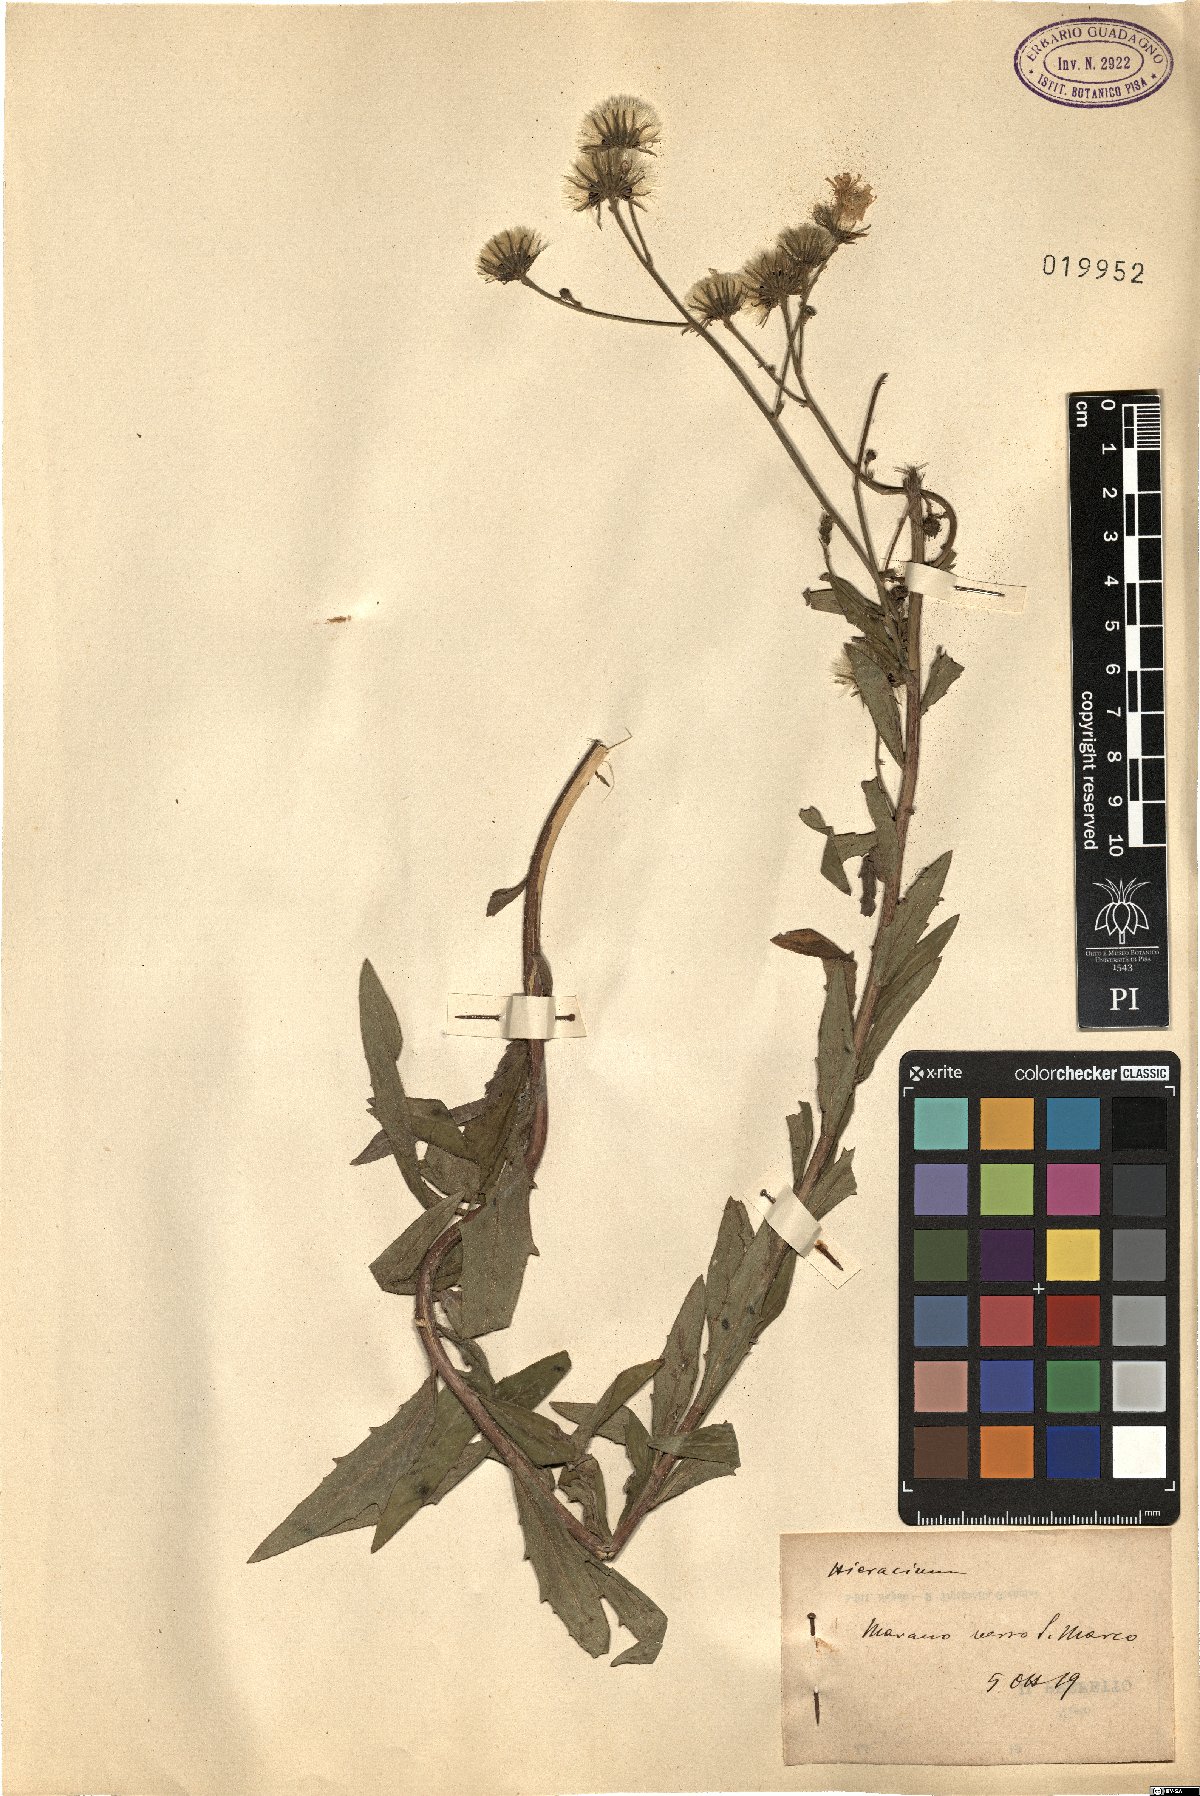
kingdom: Plantae
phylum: Tracheophyta
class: Magnoliopsida
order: Asterales
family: Asteraceae
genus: Hieracium
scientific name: Hieracium
